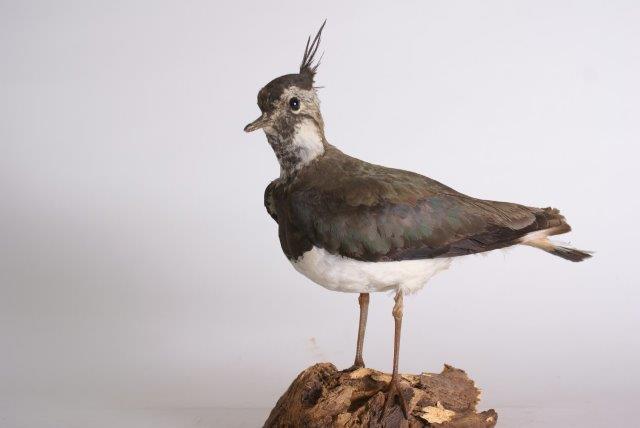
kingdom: Animalia
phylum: Chordata
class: Aves
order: Charadriiformes
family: Charadriidae
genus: Vanellus
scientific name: Vanellus vanellus
